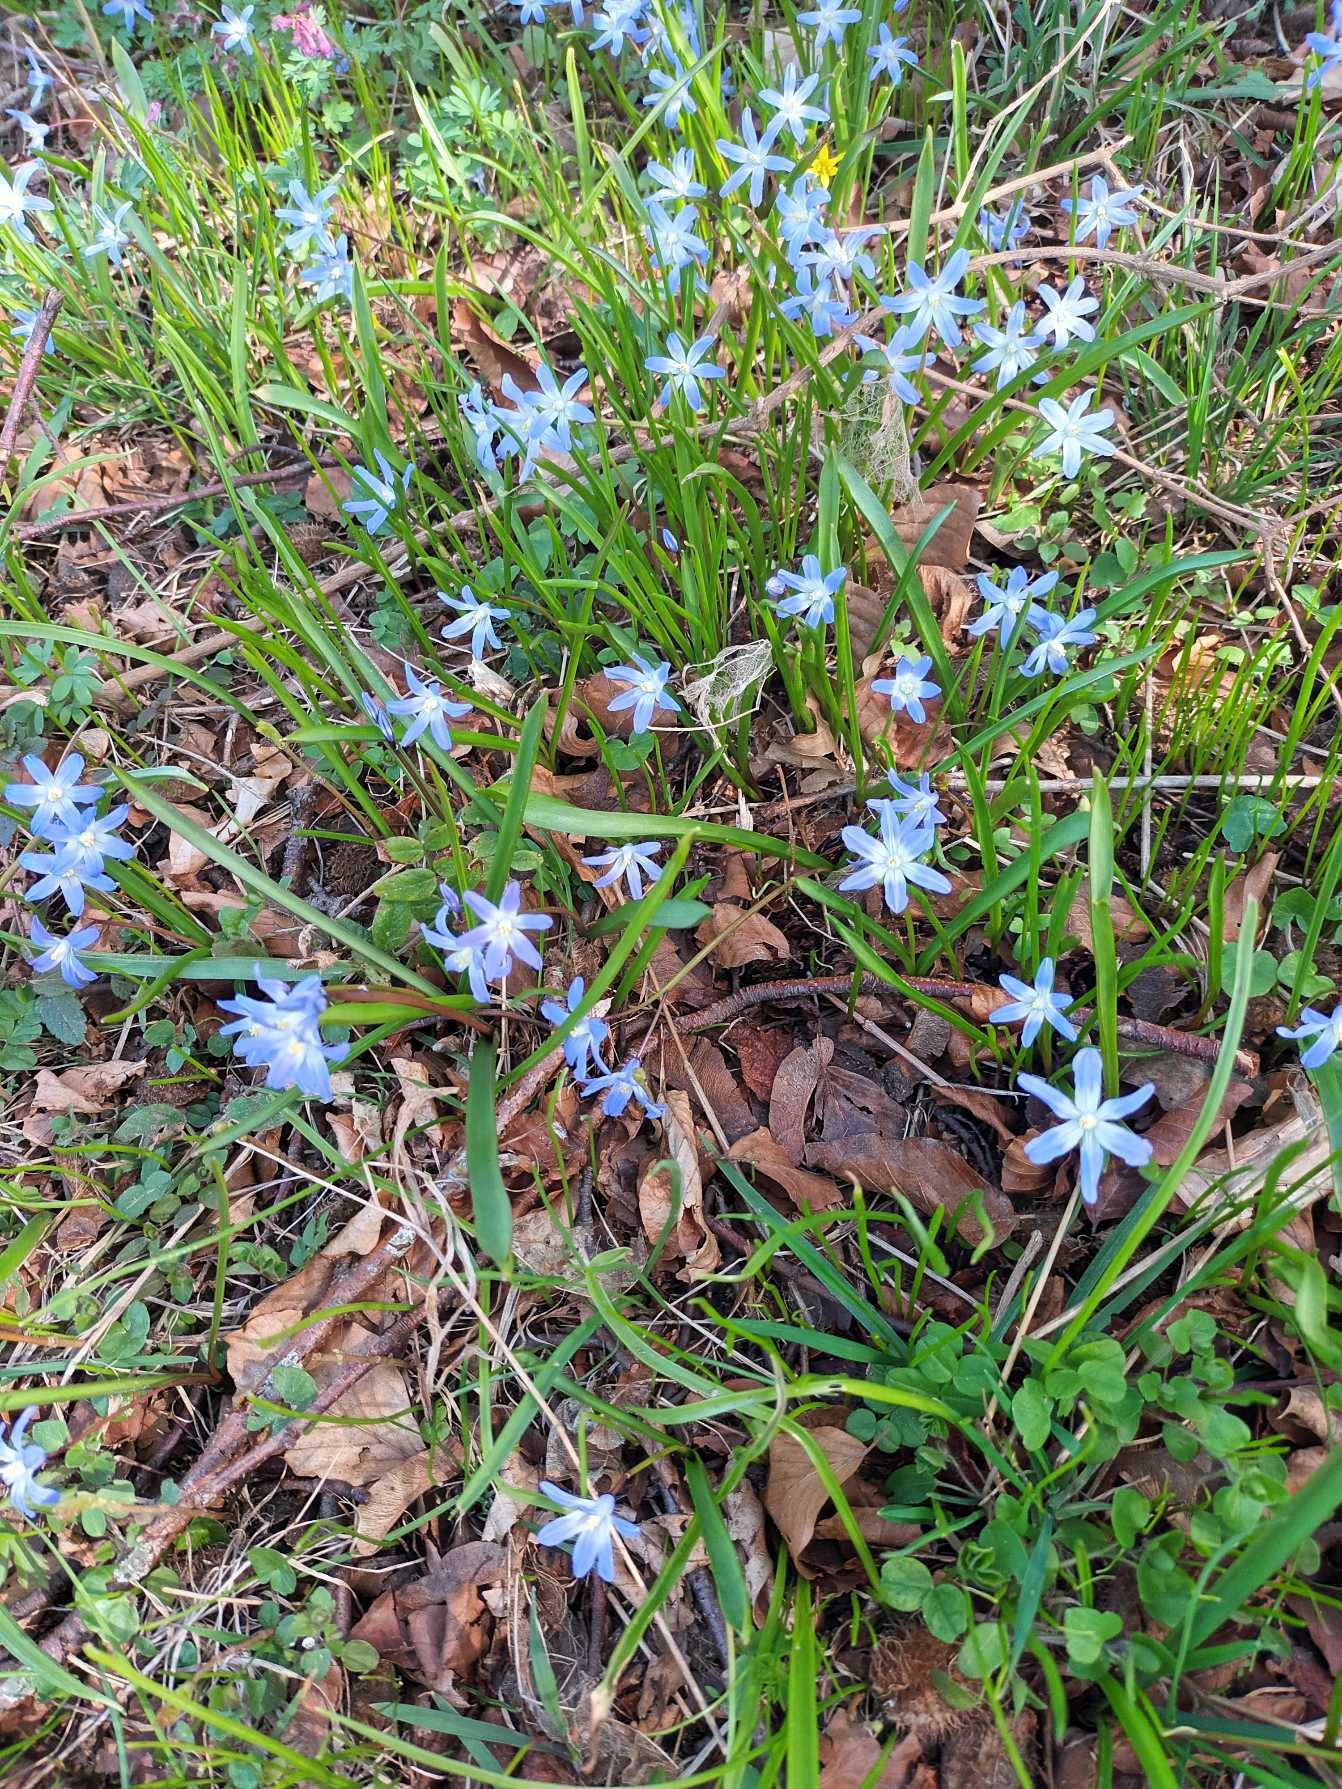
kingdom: Plantae
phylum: Tracheophyta
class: Liliopsida
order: Asparagales
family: Asparagaceae
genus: Scilla
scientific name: Scilla forbesii
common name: Almindelig snepryd
